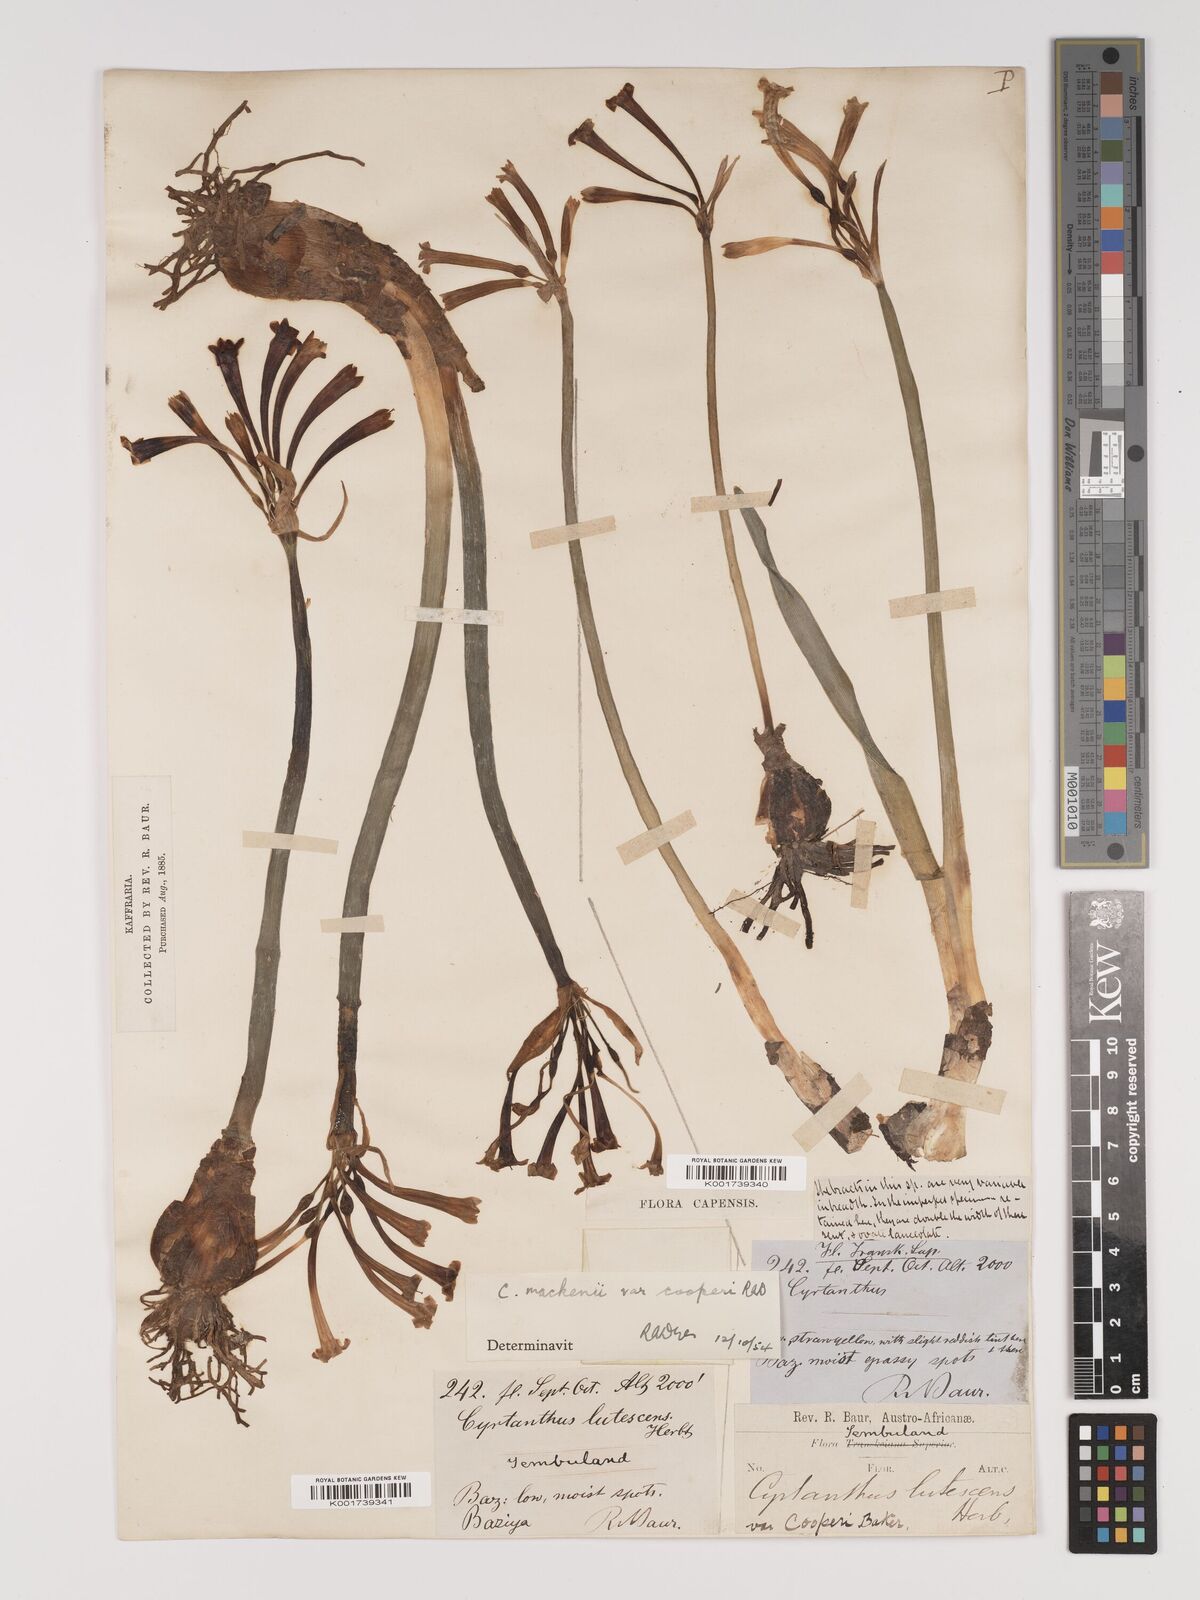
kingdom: Plantae
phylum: Tracheophyta
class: Liliopsida
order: Asparagales
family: Amaryllidaceae
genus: Cyrtanthus
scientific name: Cyrtanthus mackenii
